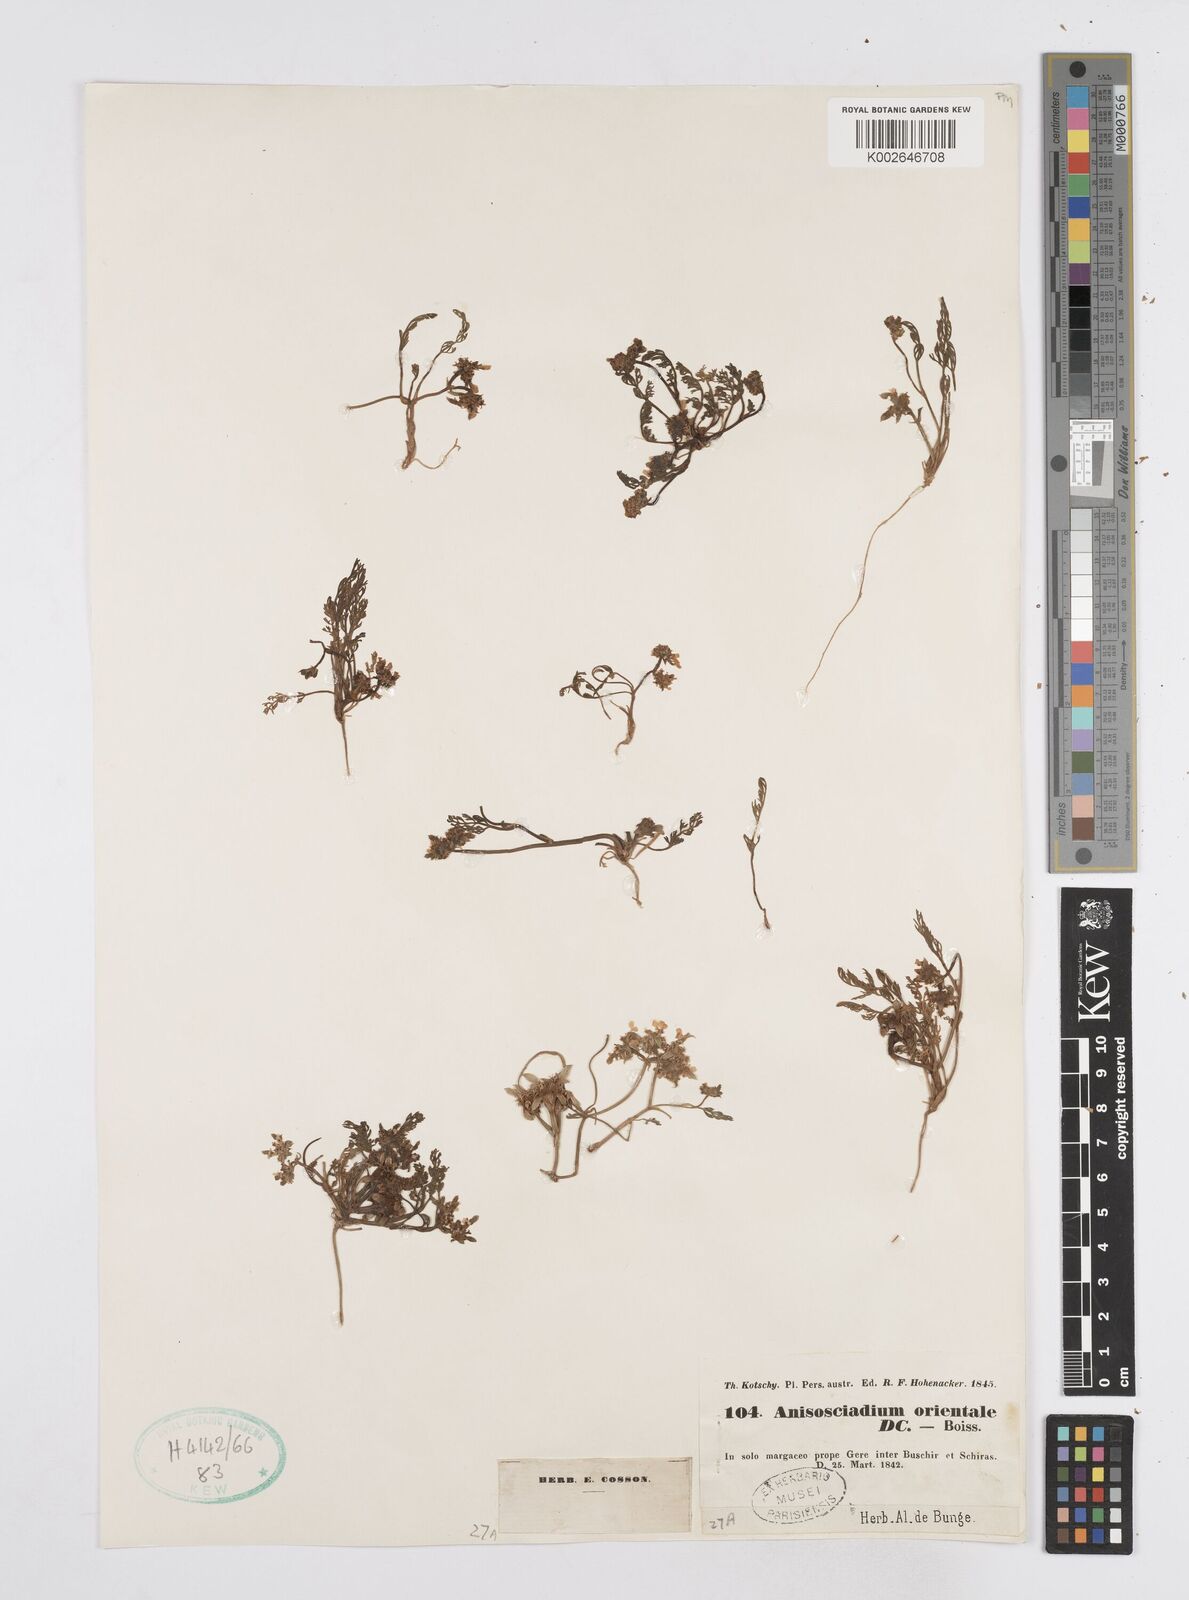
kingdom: Plantae
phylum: Tracheophyta
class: Magnoliopsida
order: Apiales
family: Apiaceae
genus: Anisosciadium
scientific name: Anisosciadium orientale
